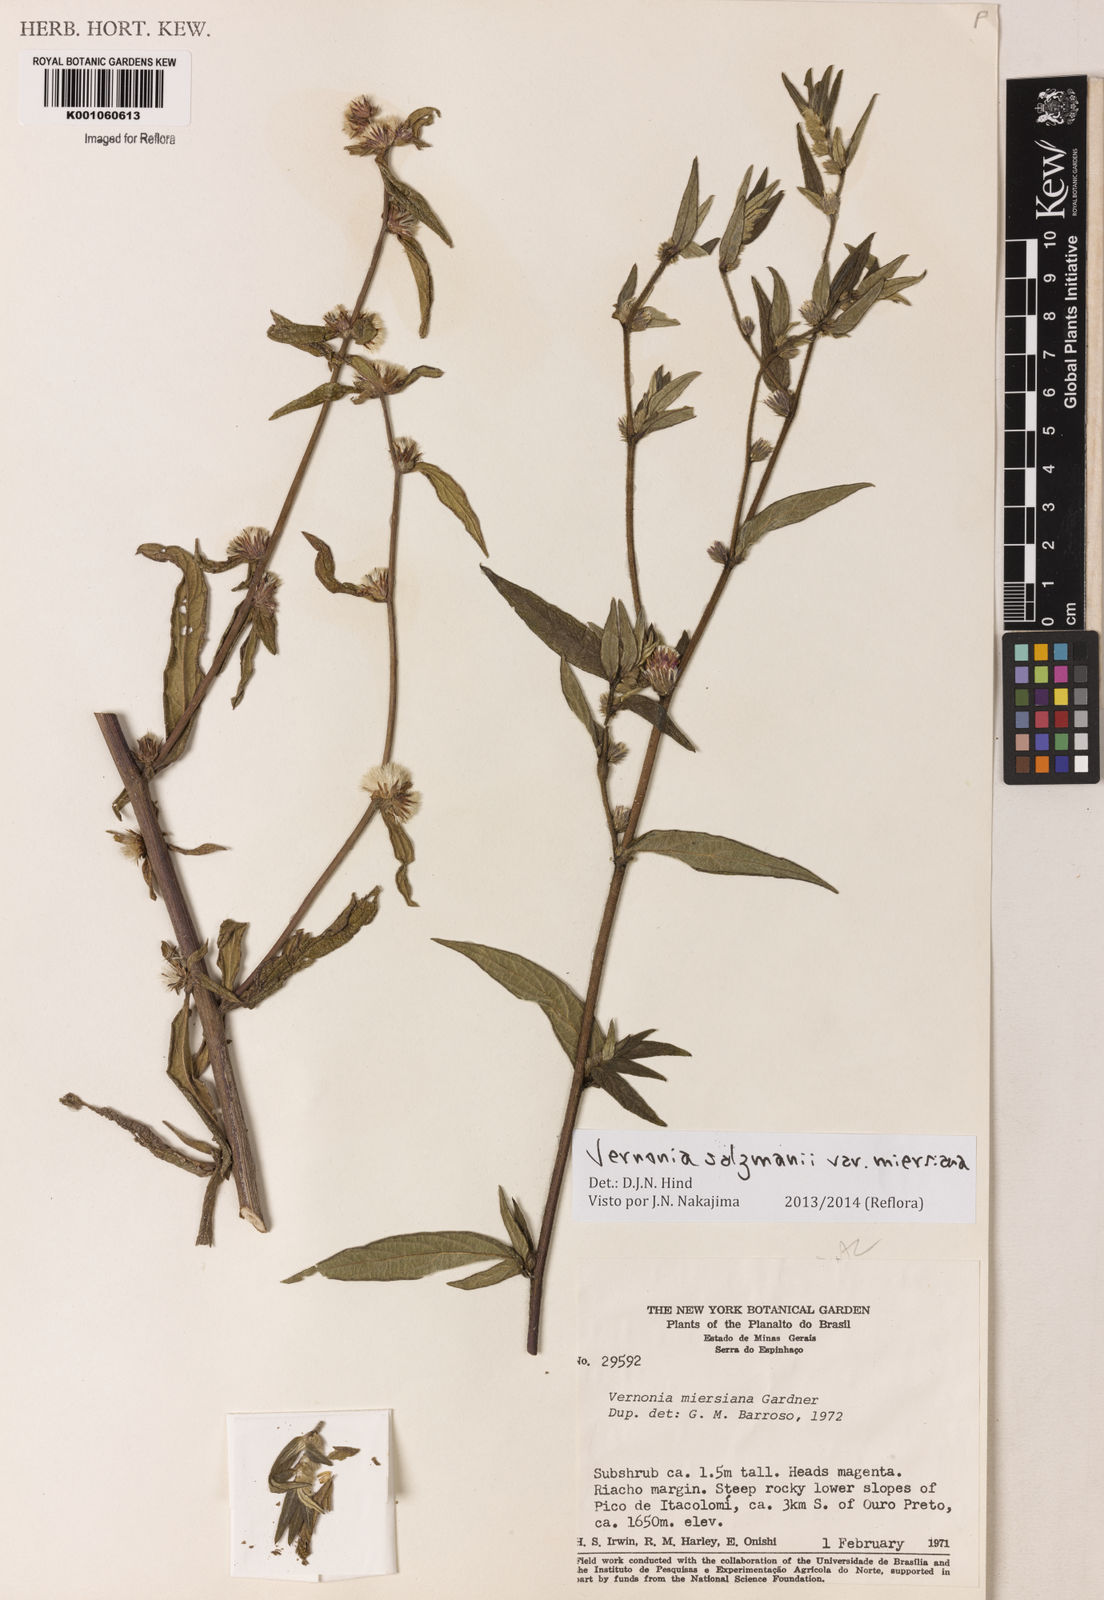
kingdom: Plantae
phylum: Tracheophyta
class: Magnoliopsida
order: Asterales
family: Asteraceae
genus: Lepidaploa
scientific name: Lepidaploa salzmannii
